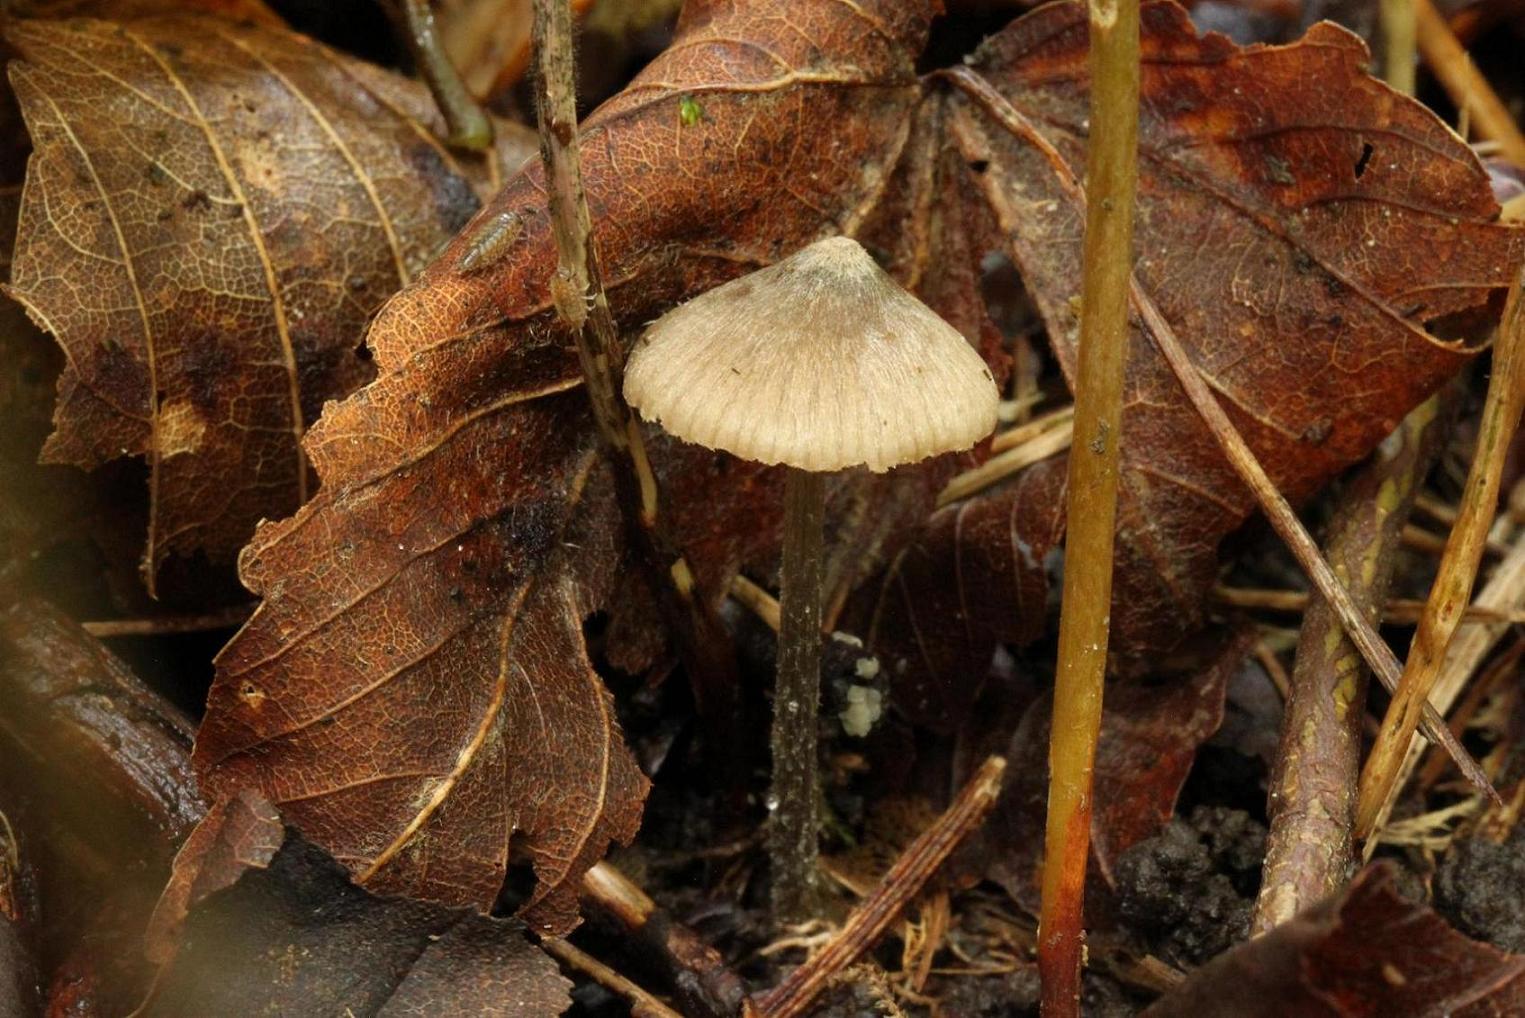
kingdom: Fungi
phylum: Basidiomycota
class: Agaricomycetes
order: Agaricales
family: Entolomataceae
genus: Entoloma
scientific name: Entoloma araneosum
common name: spindelvævs-rødblad
